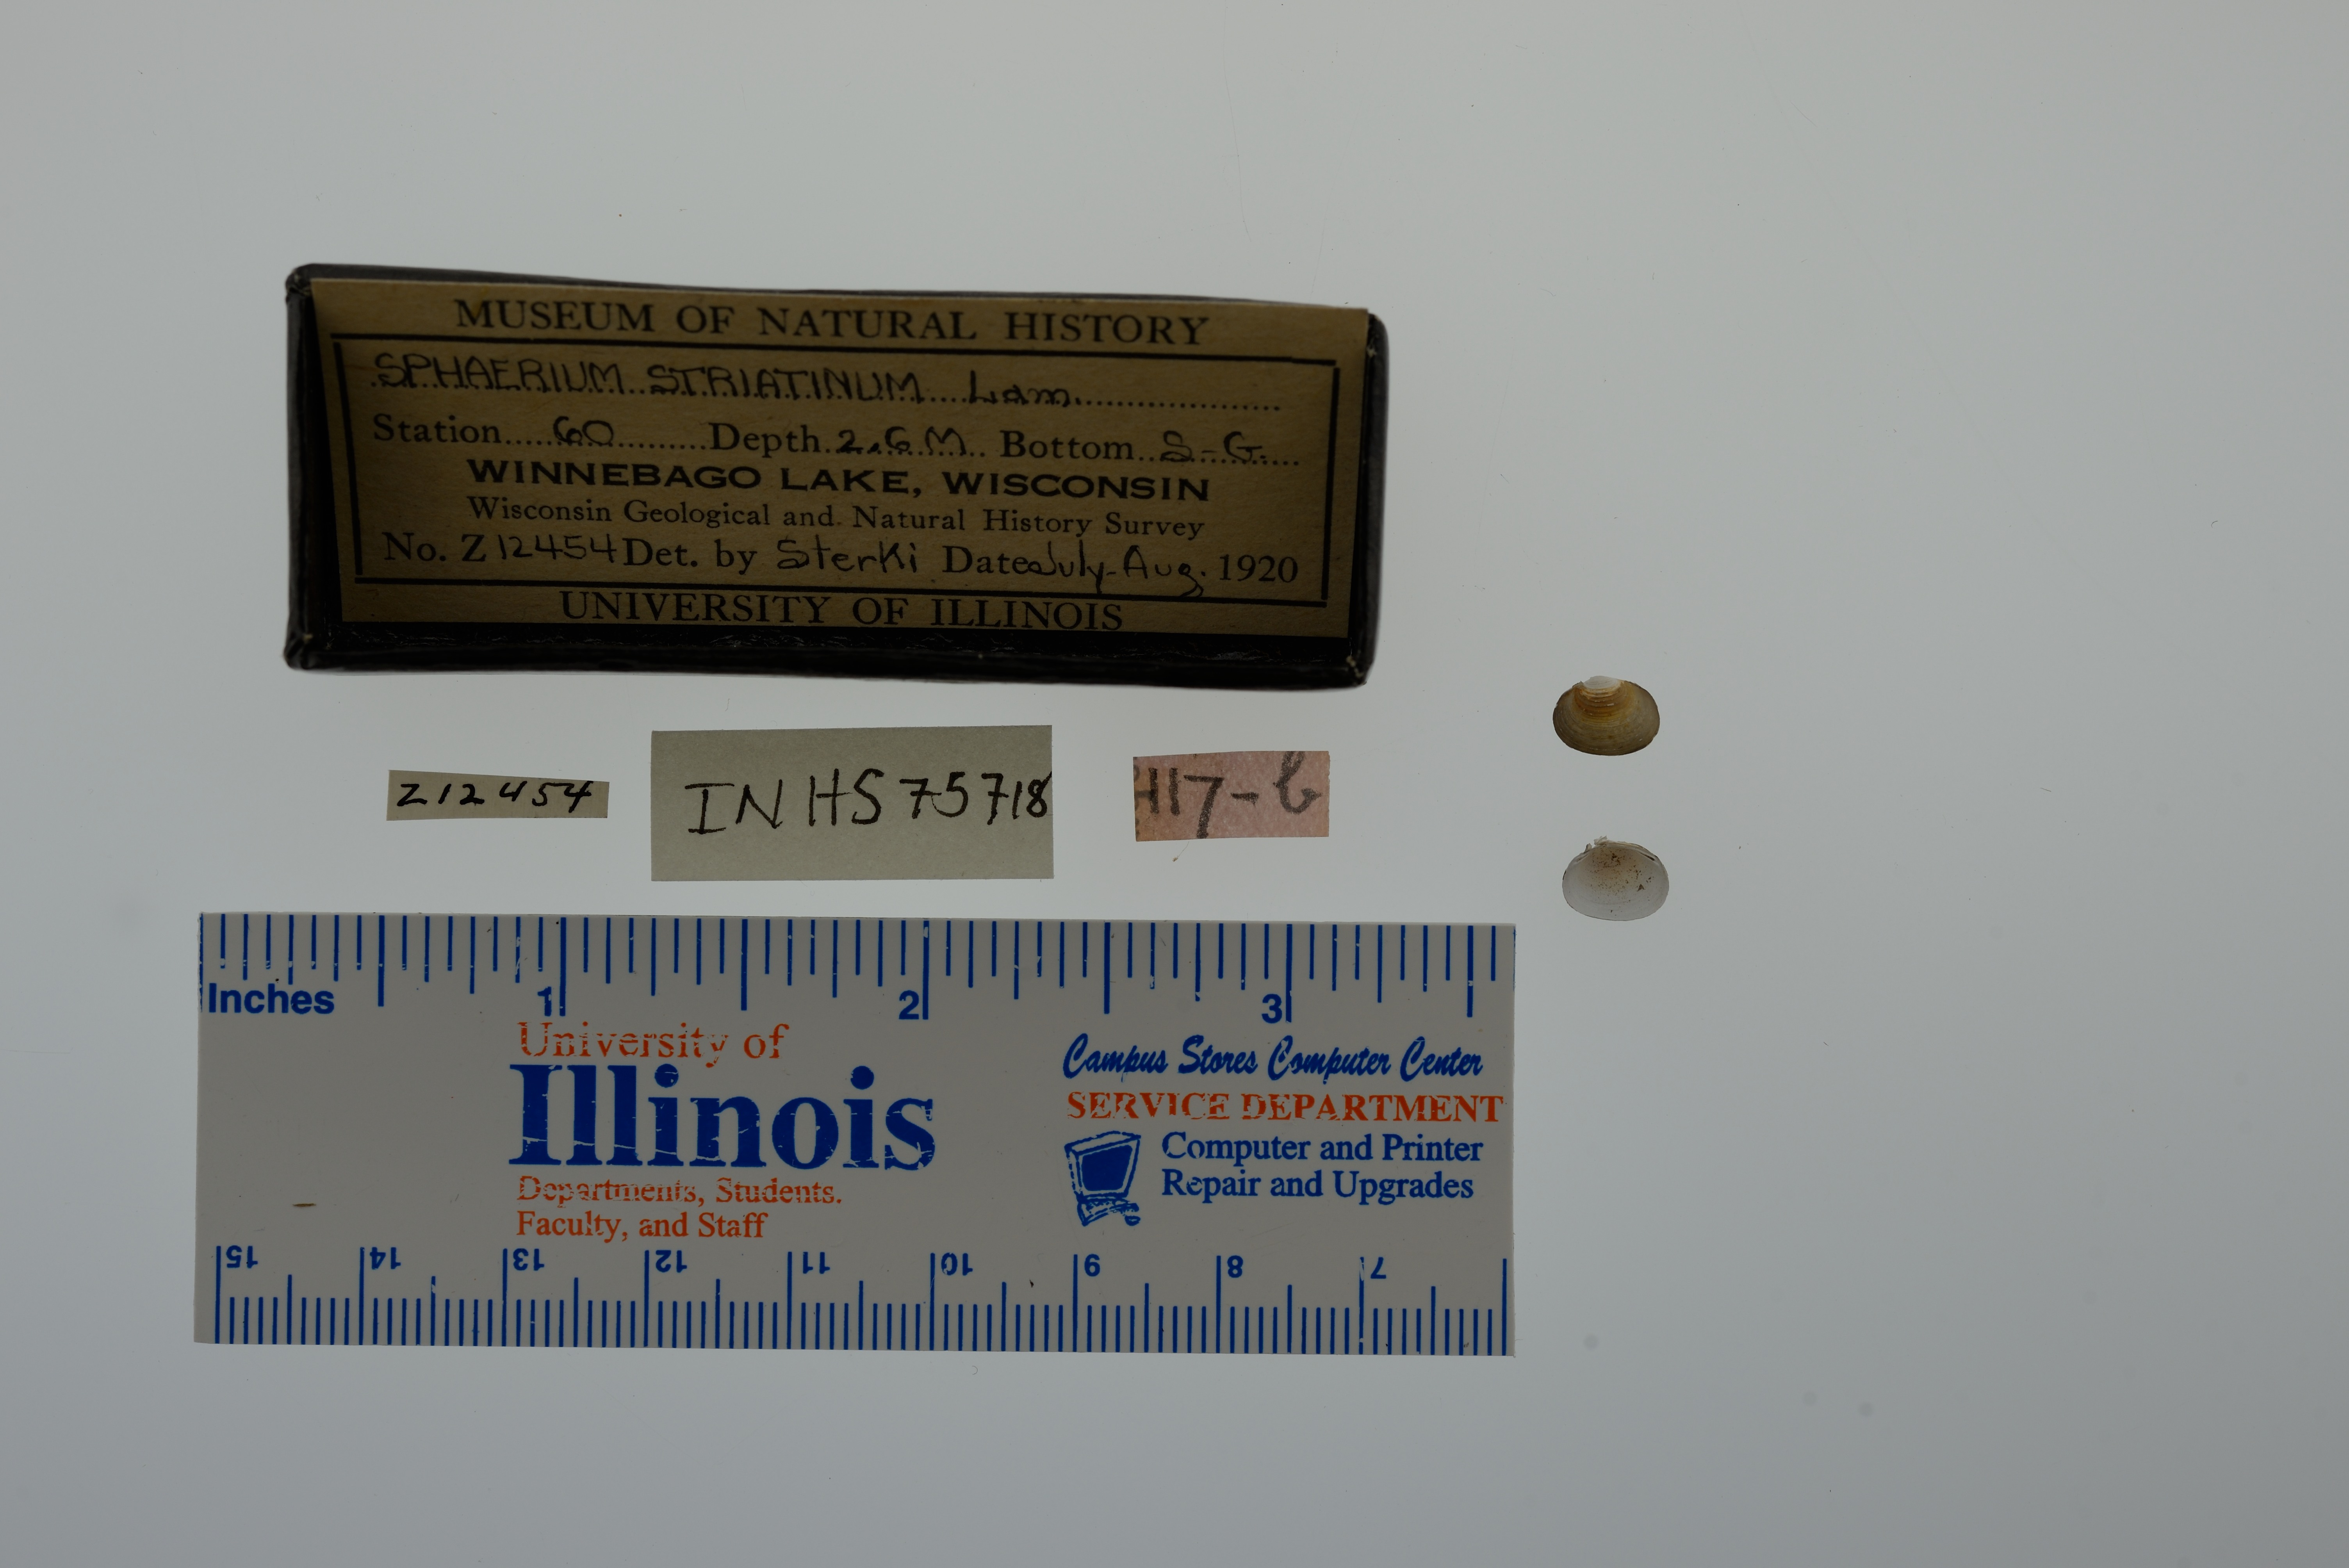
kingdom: Animalia
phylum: Mollusca
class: Bivalvia
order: Sphaeriida
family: Sphaeriidae
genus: Sphaerium
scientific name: Sphaerium striatinum
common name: Striated fingernailclam
